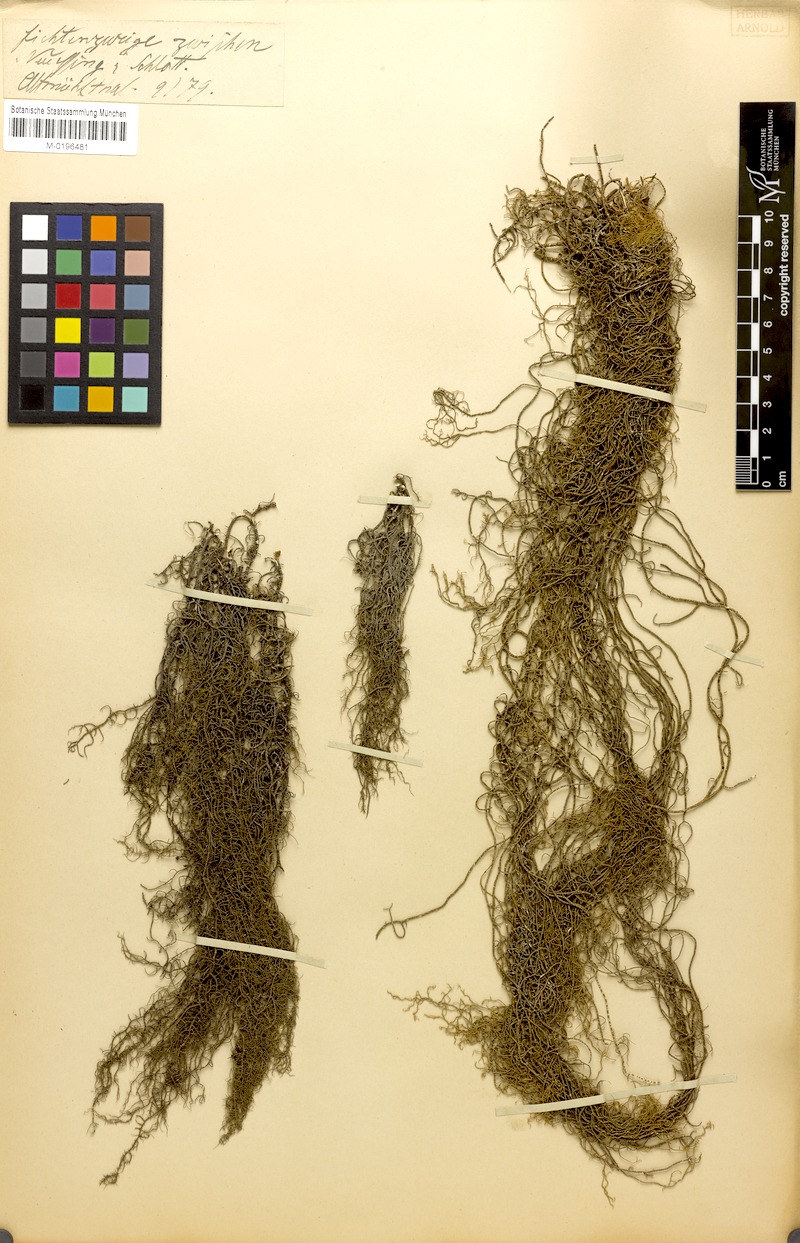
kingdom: Fungi
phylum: Ascomycota
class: Lecanoromycetes
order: Lecanorales
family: Parmeliaceae
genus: Usnea
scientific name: Usnea ceratina
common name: Warty beard lichen
